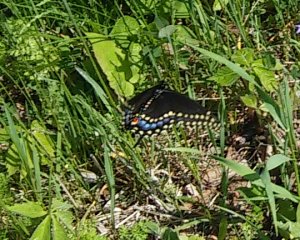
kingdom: Animalia
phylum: Arthropoda
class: Insecta
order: Lepidoptera
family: Papilionidae
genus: Papilio
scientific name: Papilio polyxenes
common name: Black Swallowtail
